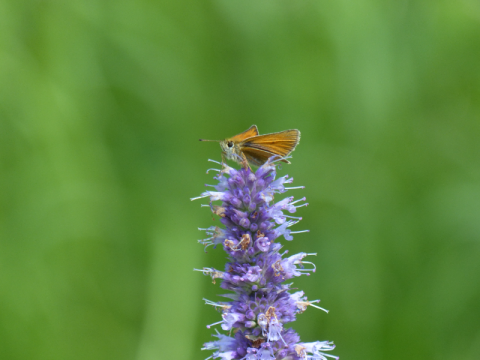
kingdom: Animalia
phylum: Arthropoda
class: Insecta
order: Lepidoptera
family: Hesperiidae
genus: Thymelicus
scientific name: Thymelicus lineola
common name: European Skipper
